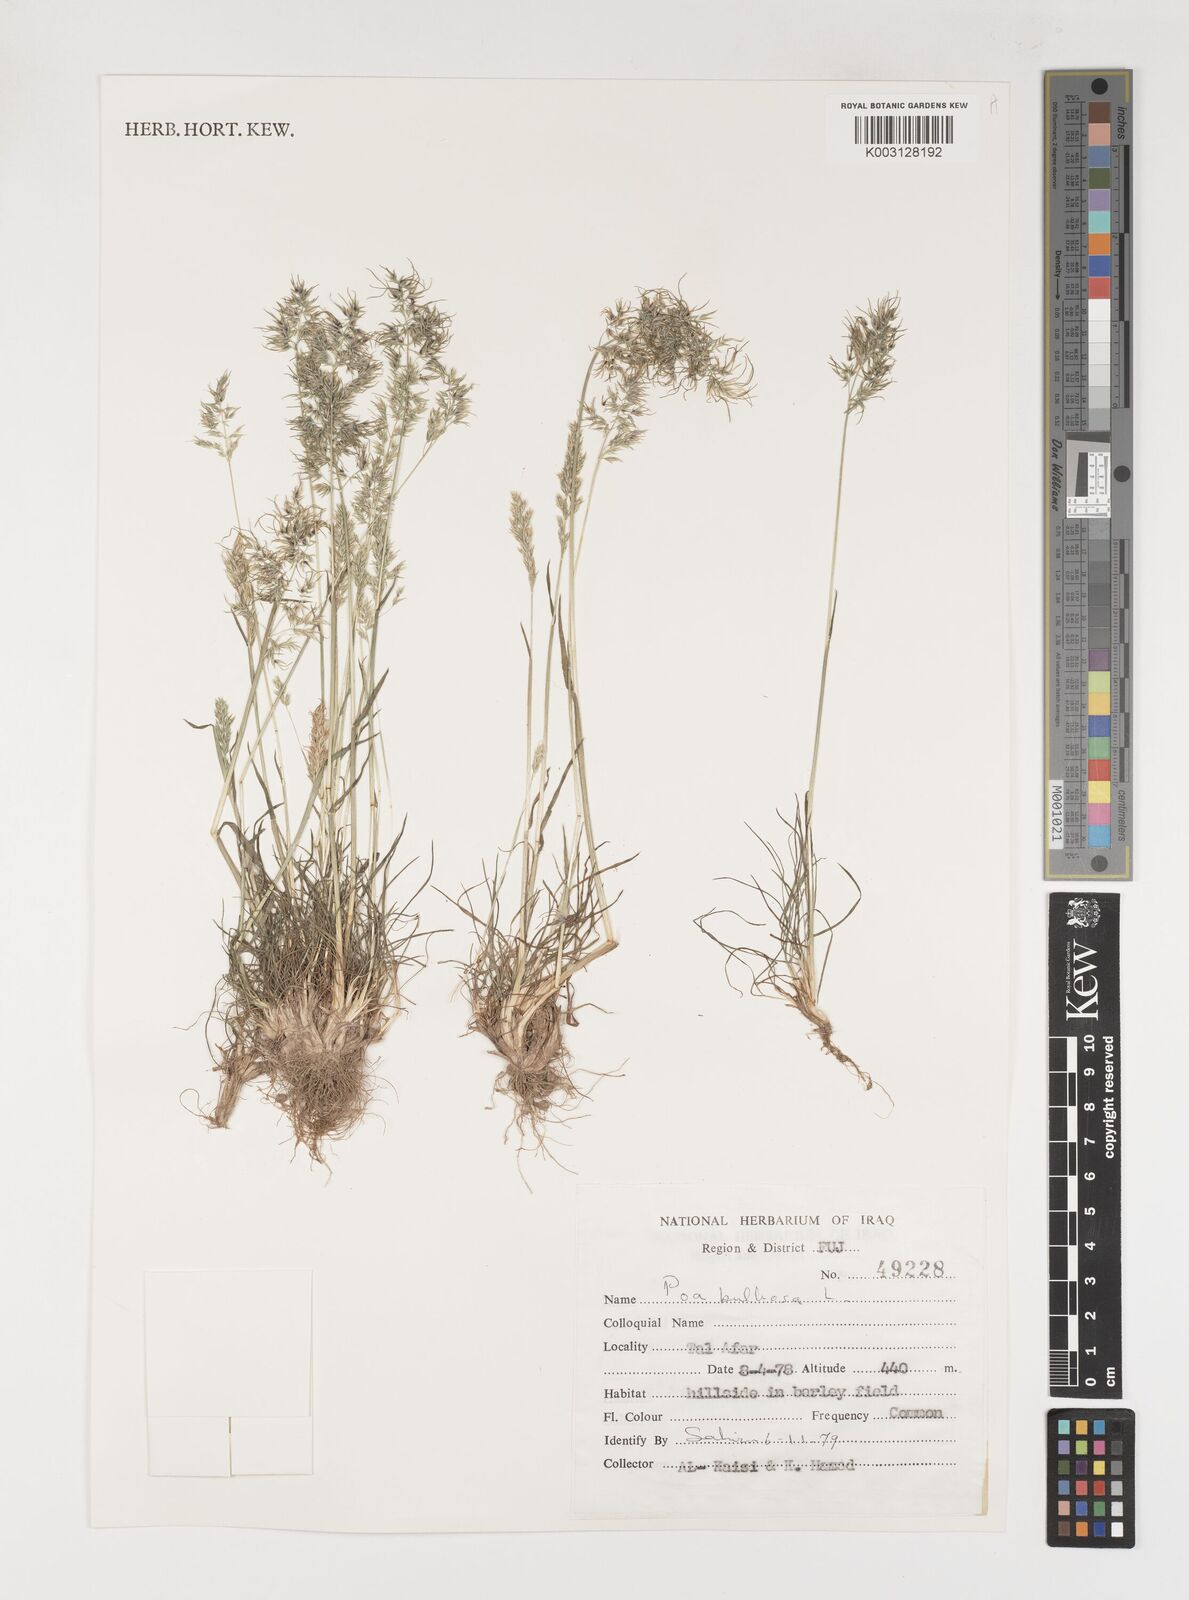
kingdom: Plantae
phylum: Tracheophyta
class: Liliopsida
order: Poales
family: Poaceae
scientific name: Poaceae
